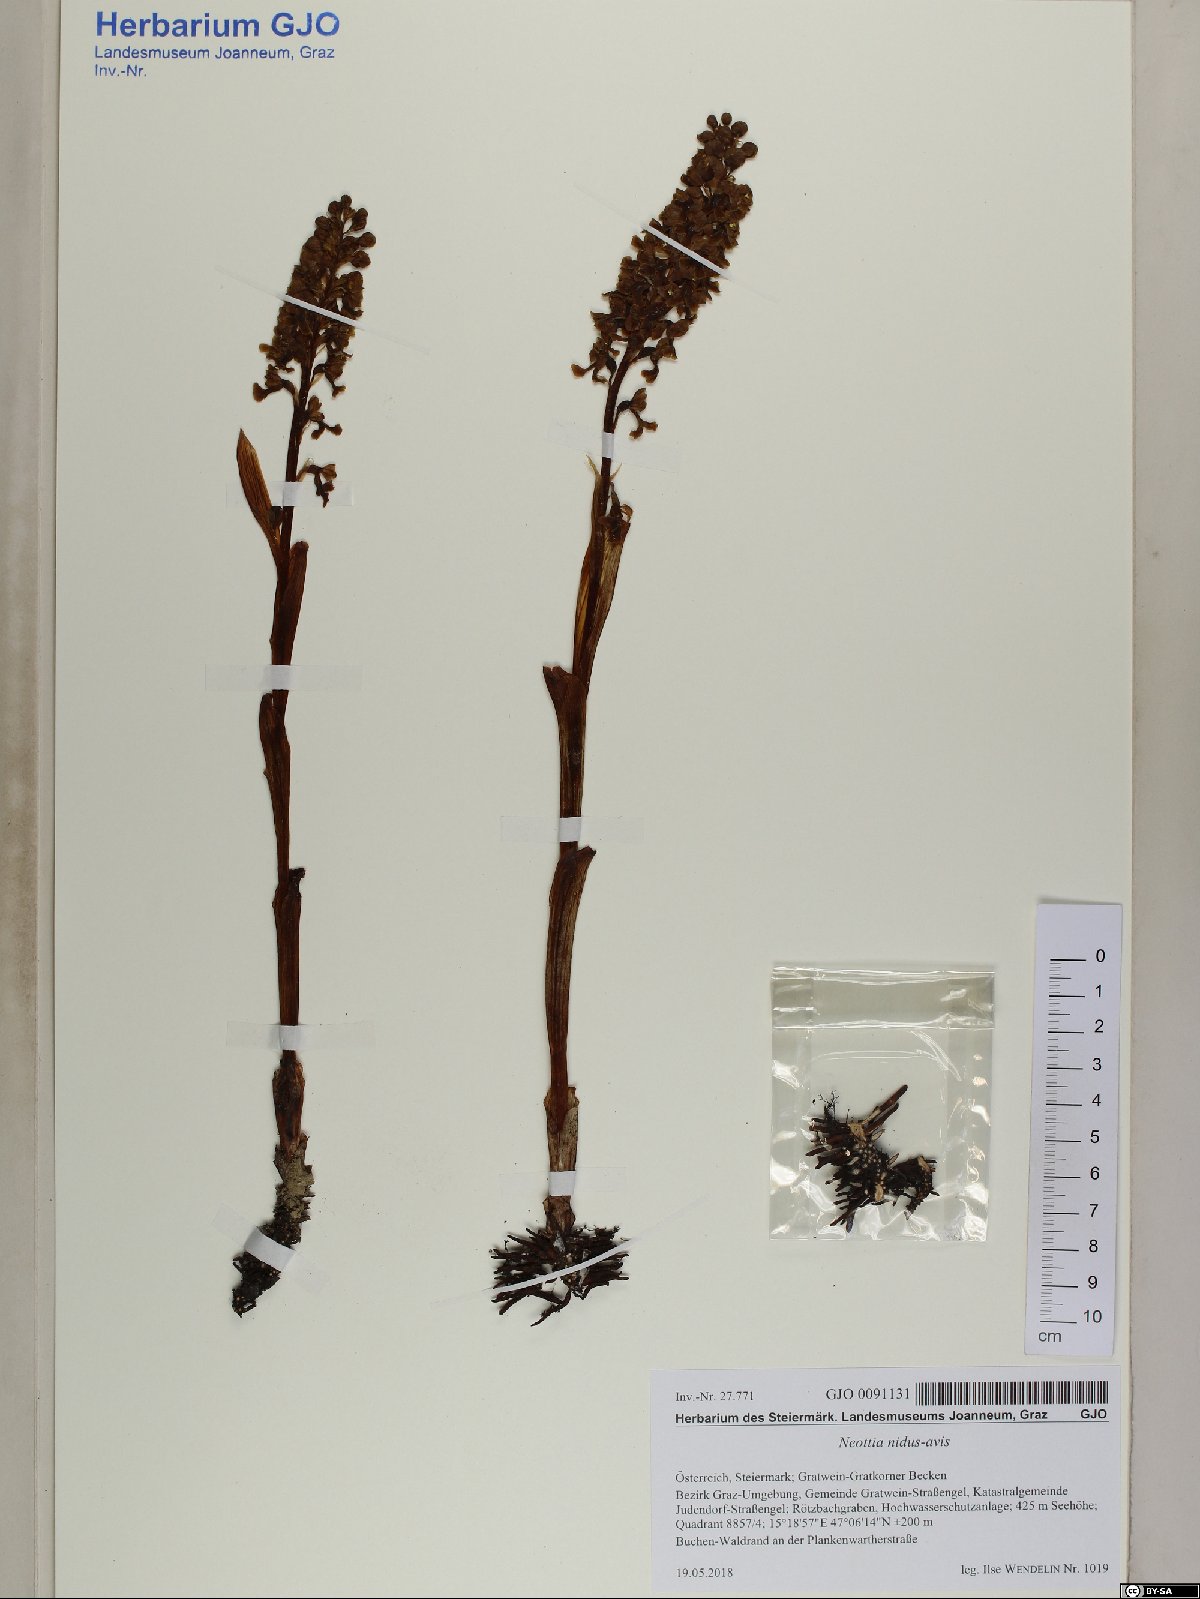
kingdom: Plantae
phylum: Tracheophyta
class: Liliopsida
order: Asparagales
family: Orchidaceae
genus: Neottia
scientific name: Neottia nidus-avis
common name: Bird's-nest orchid
